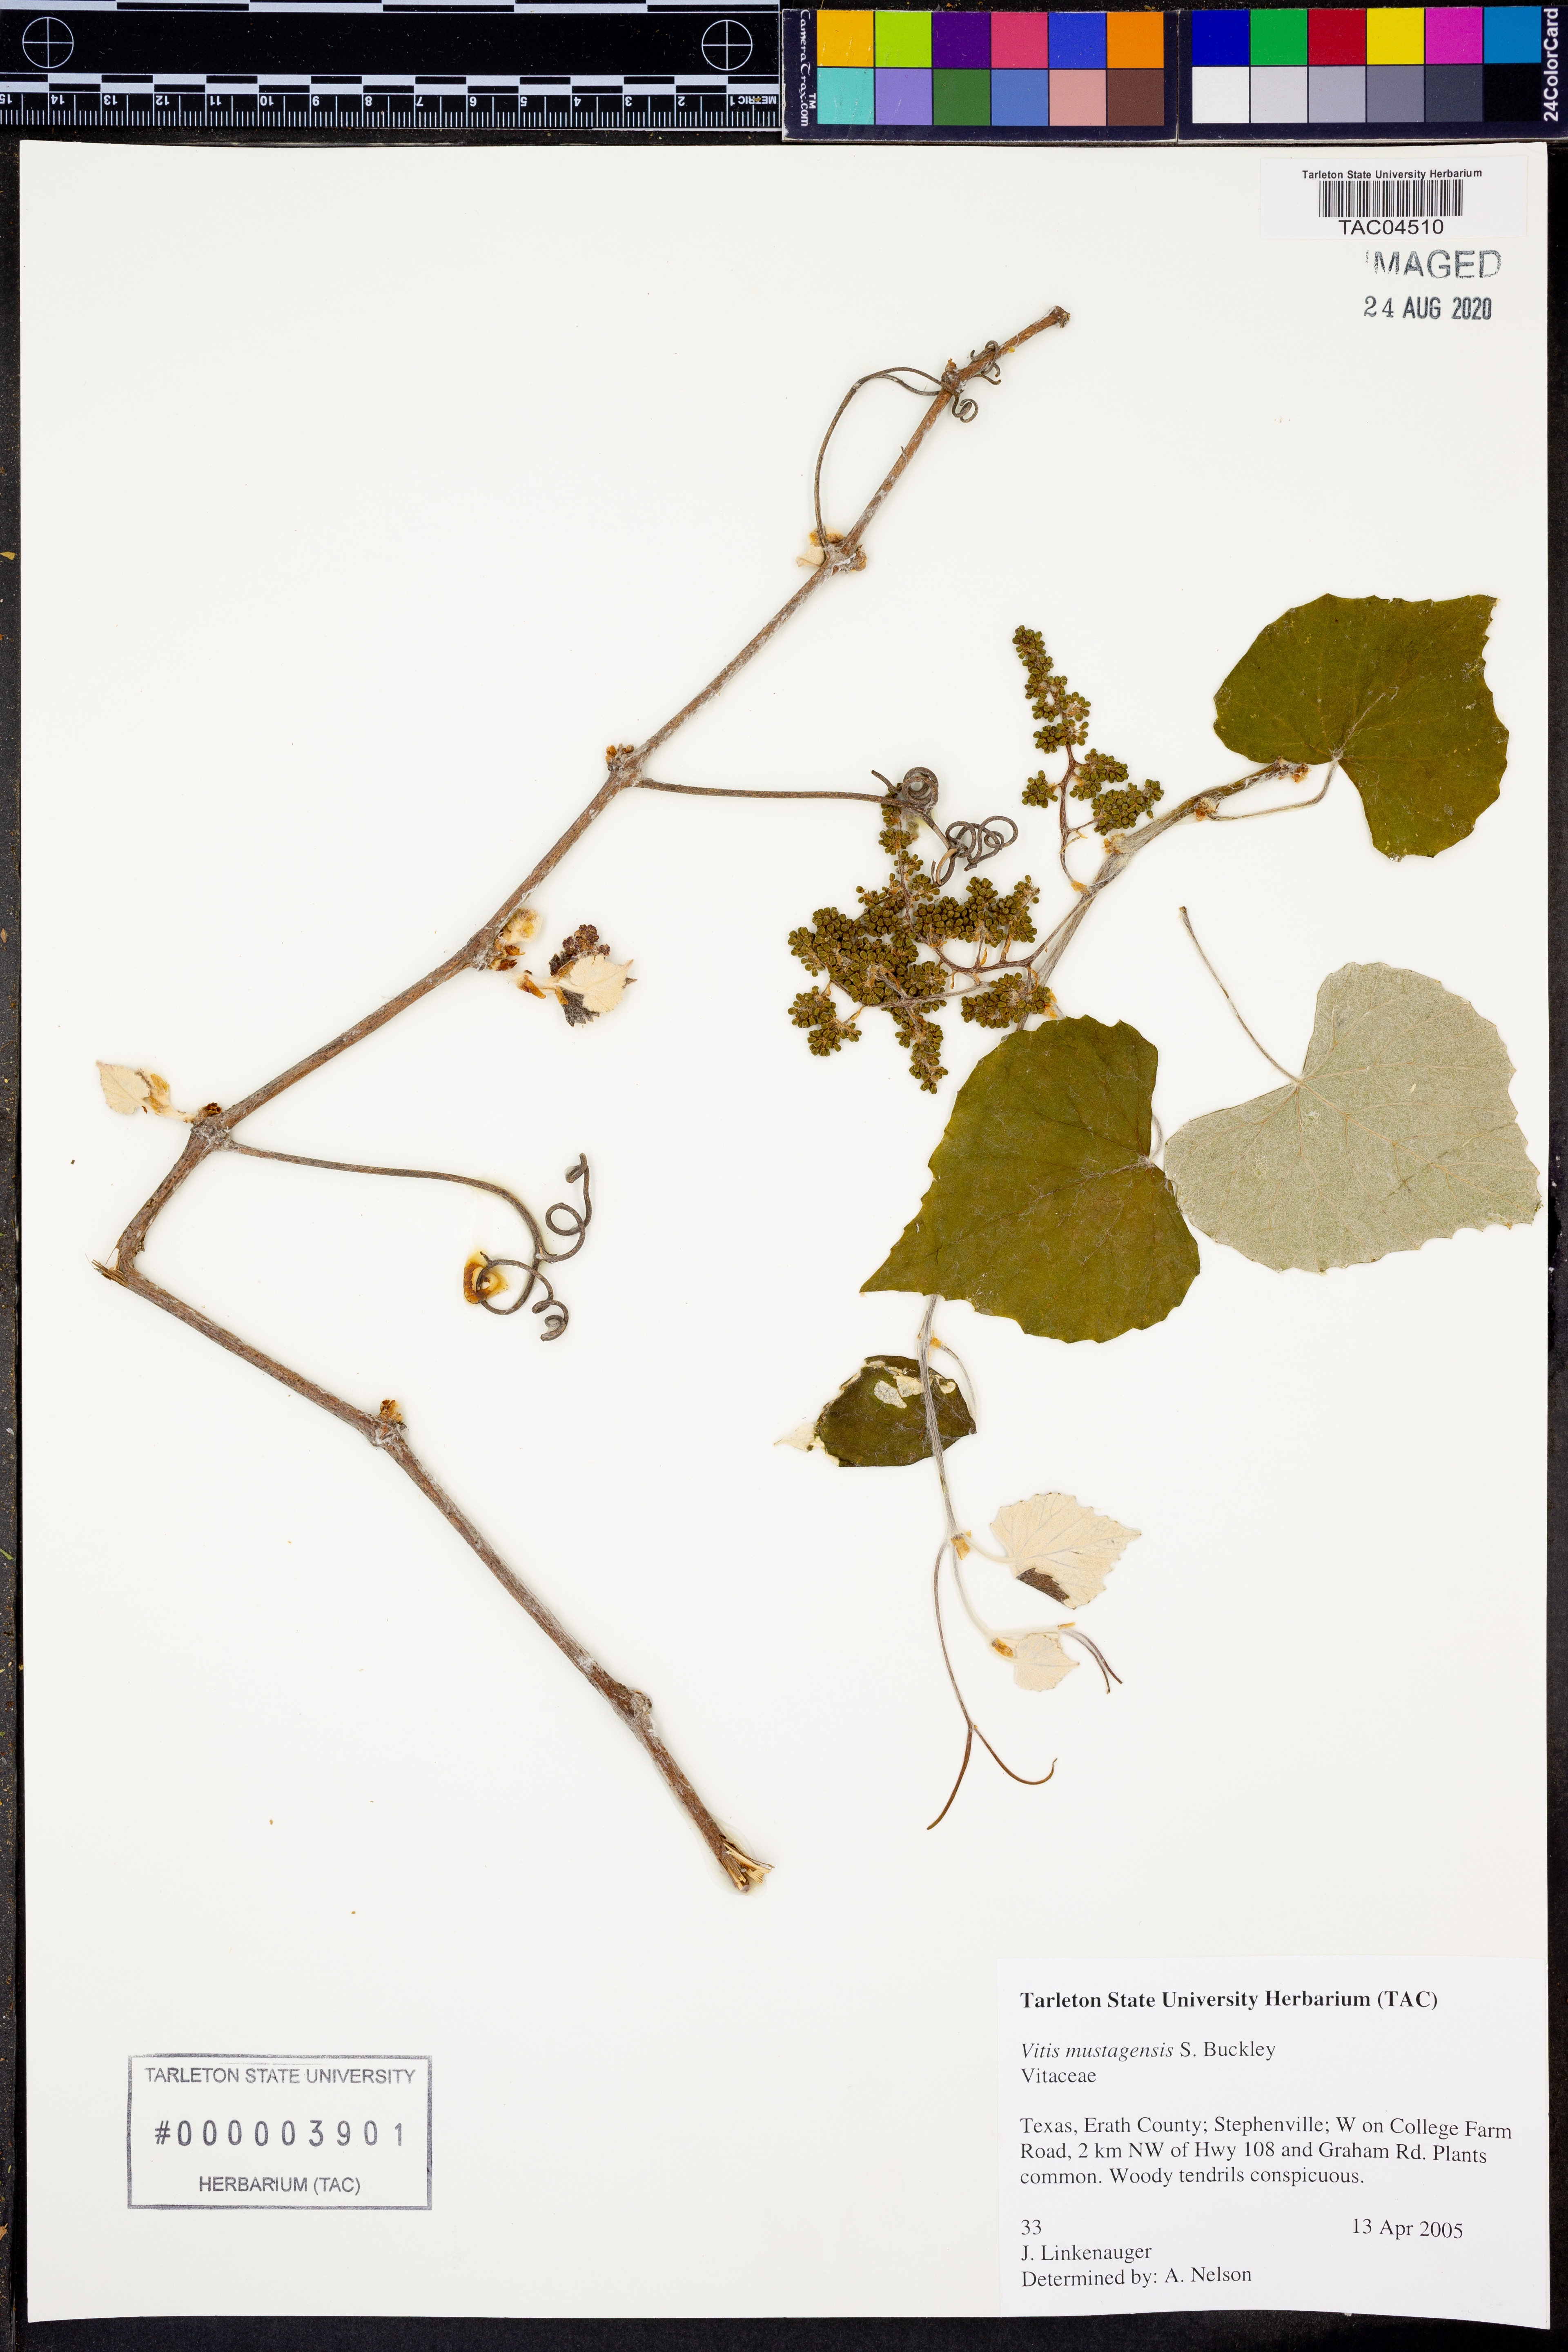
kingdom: Plantae
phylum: Tracheophyta
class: Magnoliopsida
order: Vitales
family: Vitaceae
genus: Vitis
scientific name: Vitis mustangensis
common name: Mustang grape
